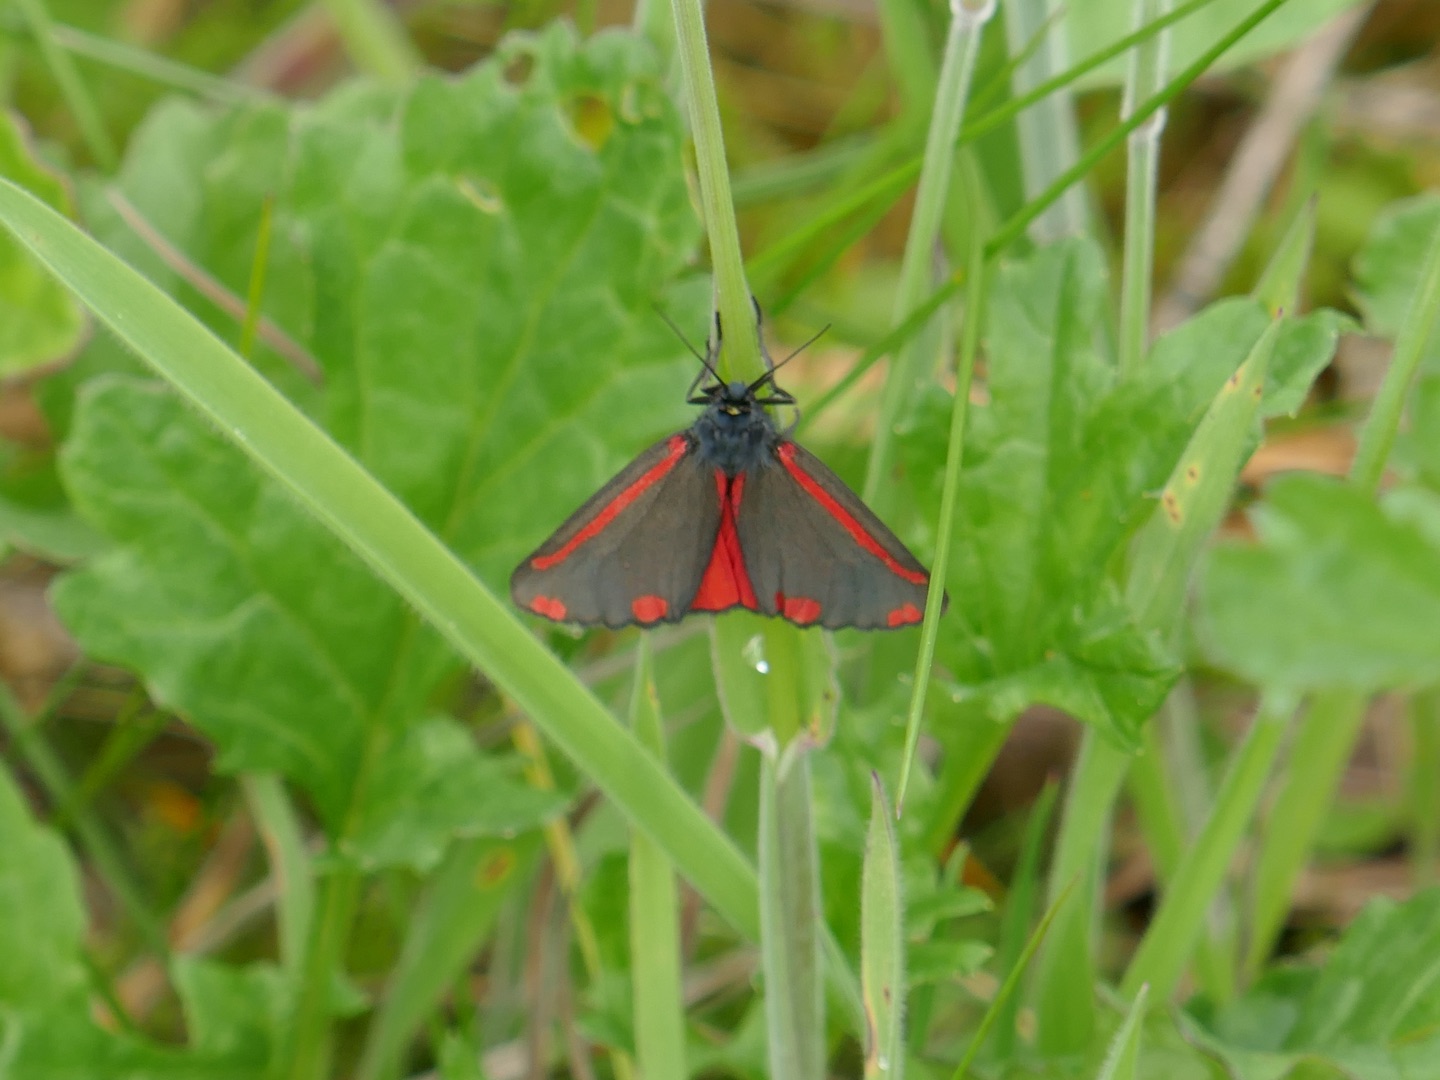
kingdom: Animalia
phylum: Arthropoda
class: Insecta
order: Lepidoptera
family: Erebidae
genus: Tyria
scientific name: Tyria jacobaeae
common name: Blodplet
